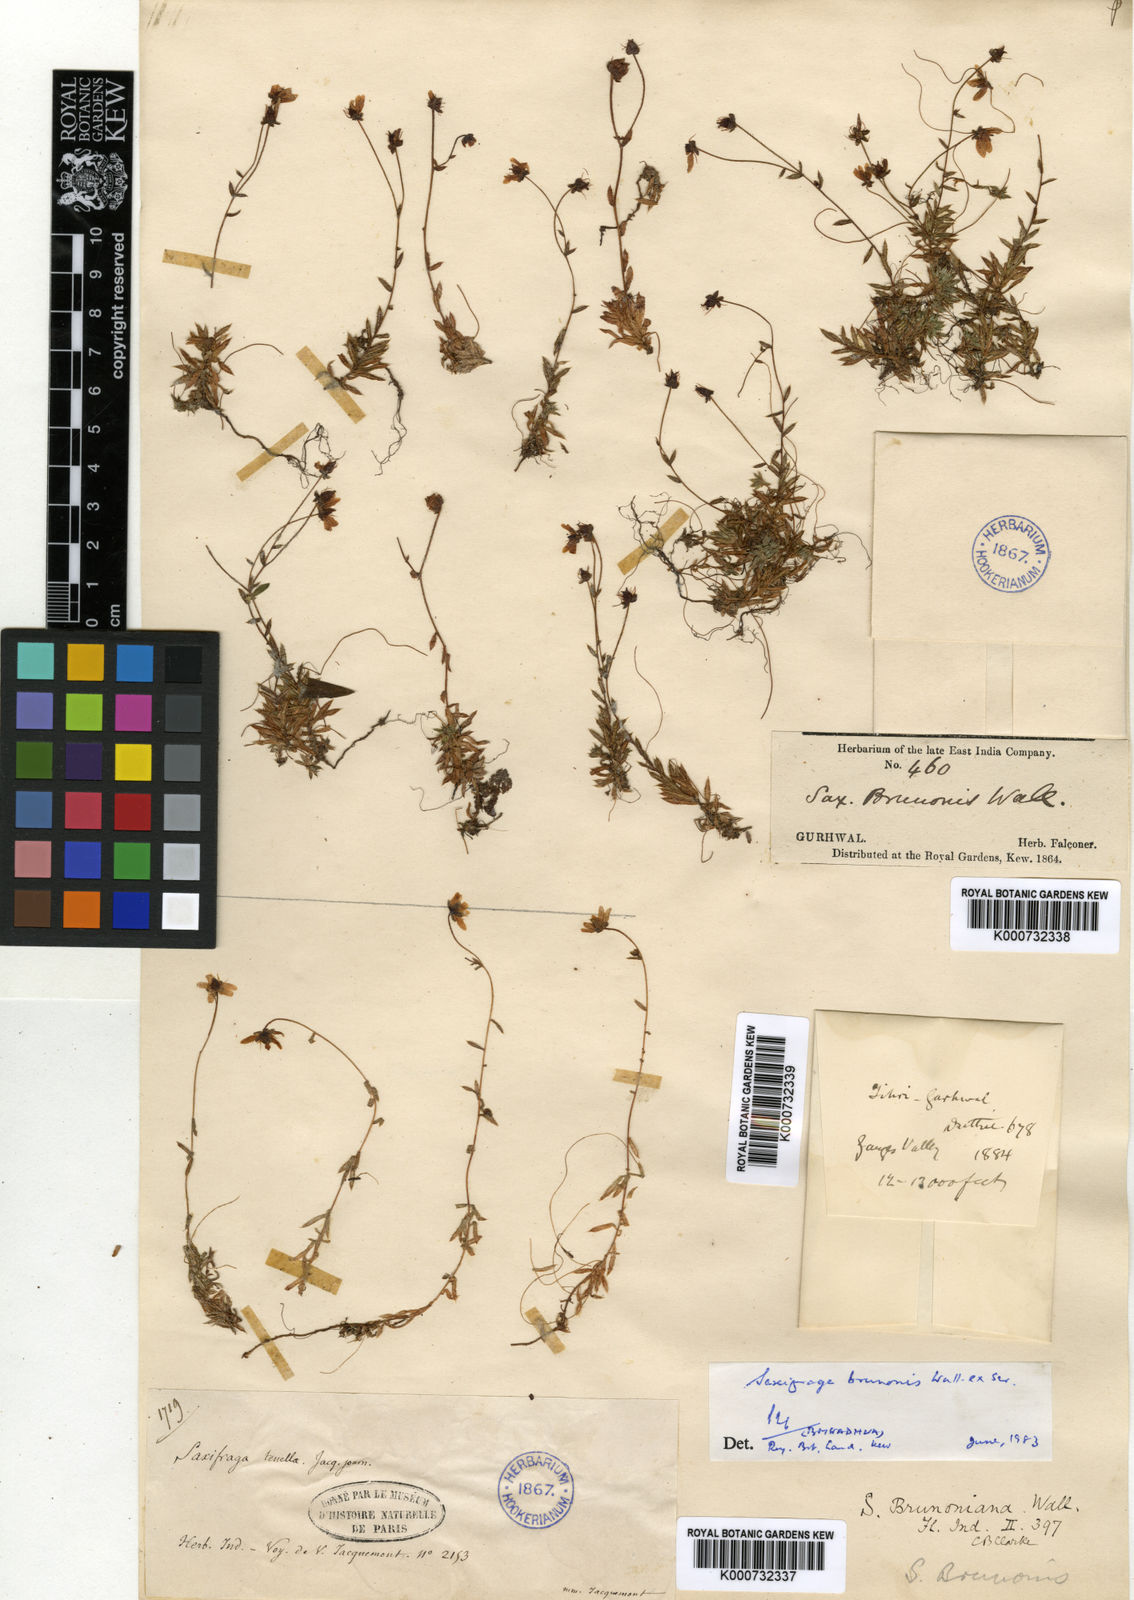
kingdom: Plantae
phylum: Tracheophyta
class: Magnoliopsida
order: Saxifragales
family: Saxifragaceae
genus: Saxifraga
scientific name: Saxifraga
